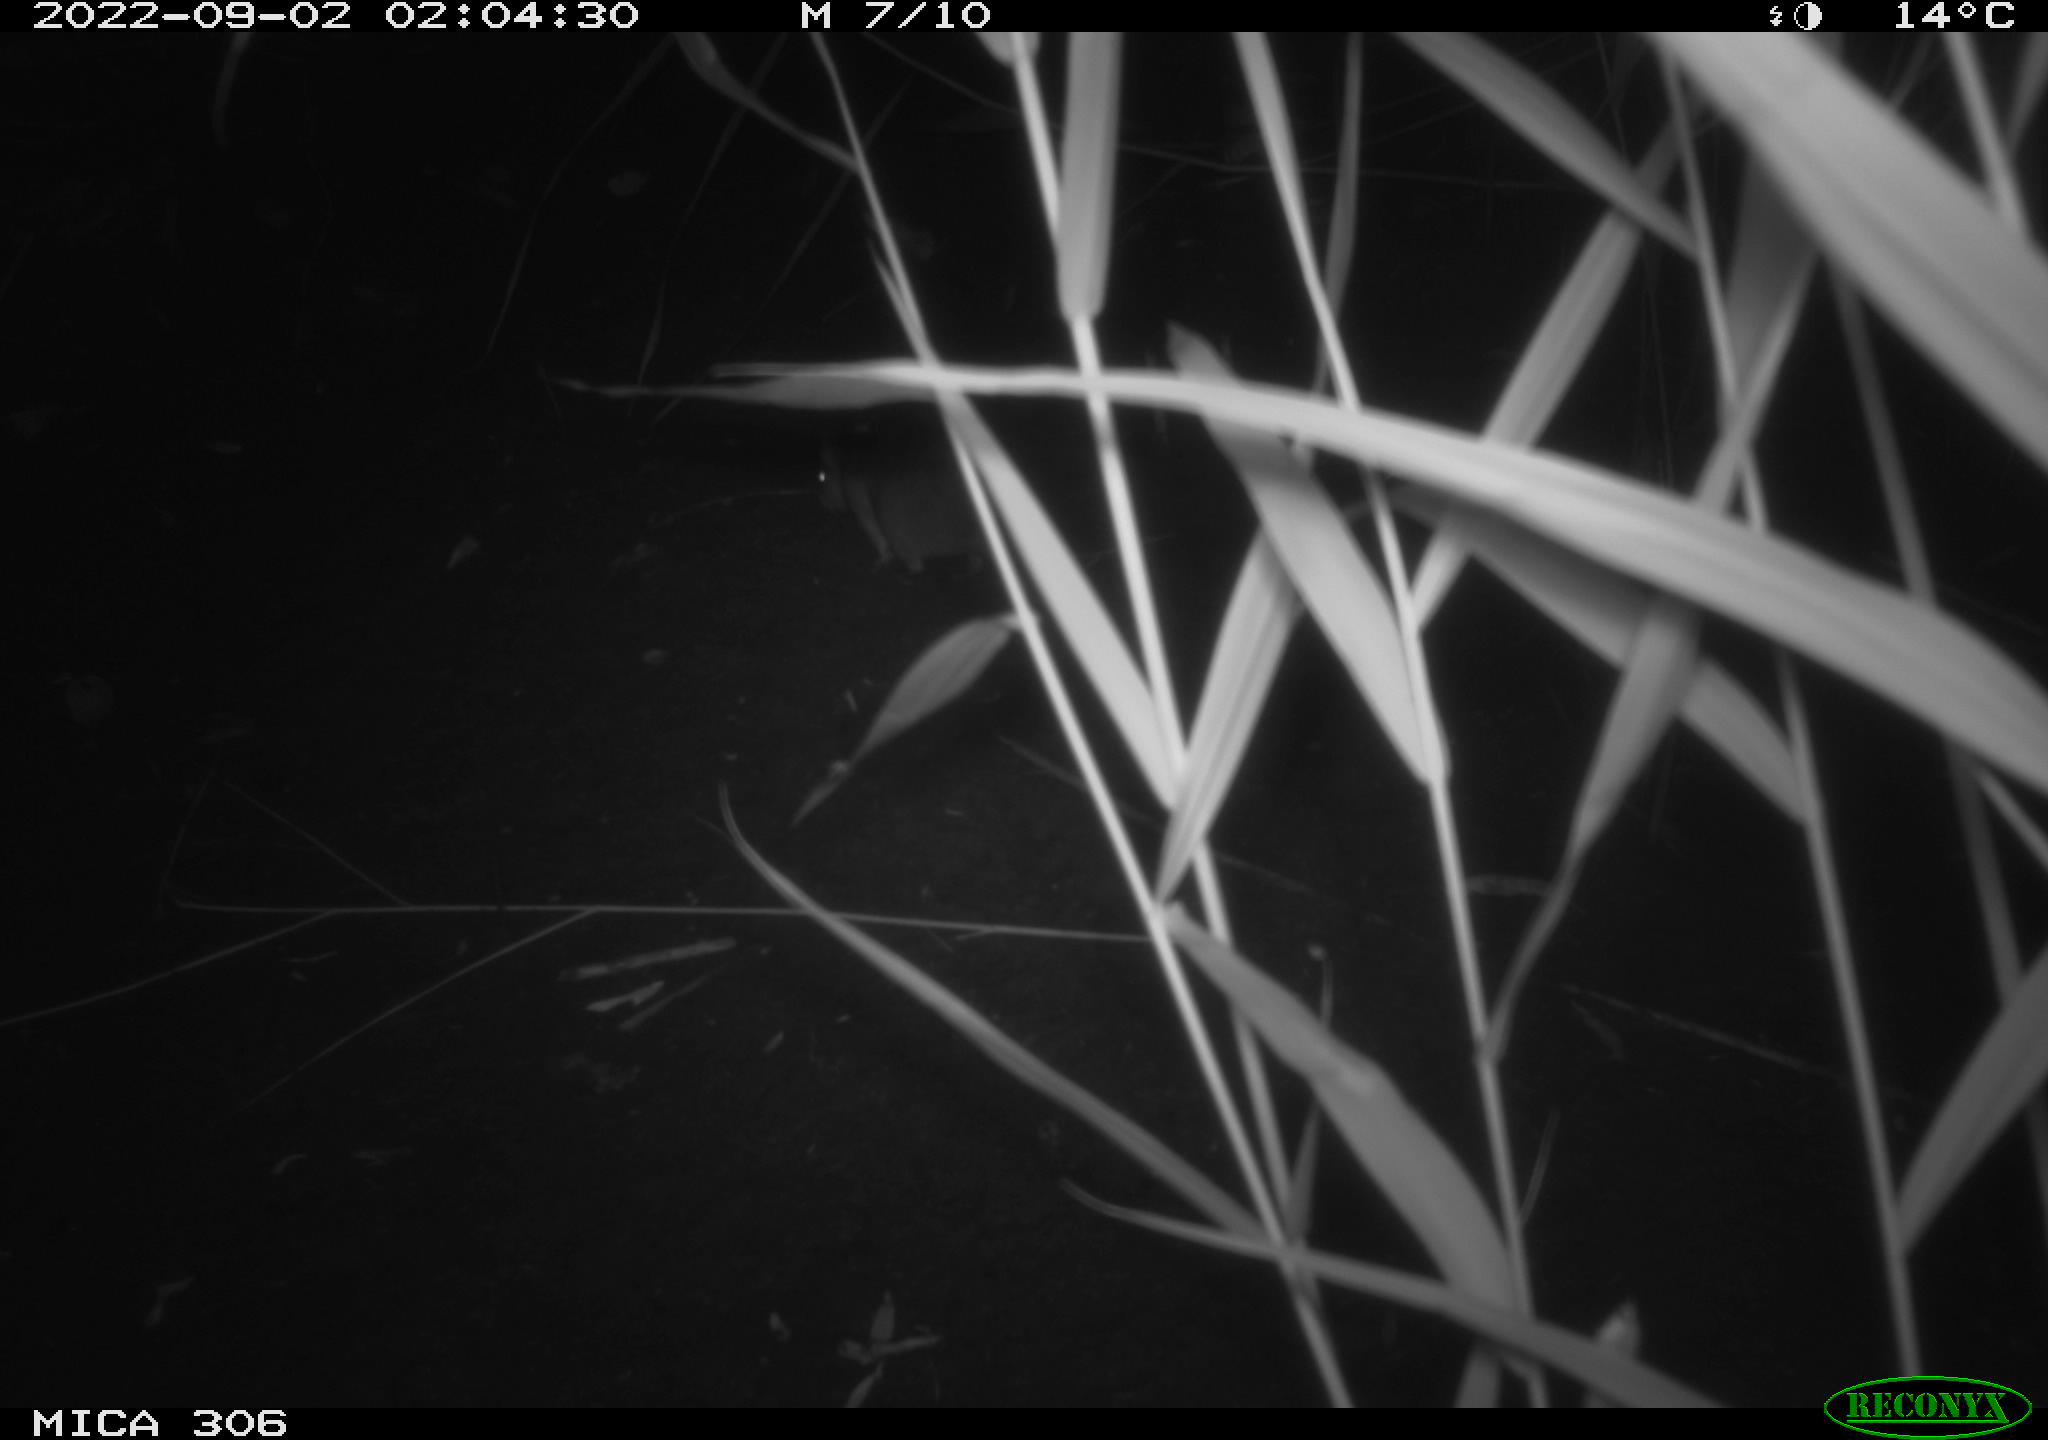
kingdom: Animalia
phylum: Chordata
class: Mammalia
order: Rodentia
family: Muridae
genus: Rattus
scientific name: Rattus norvegicus
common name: Brown rat
